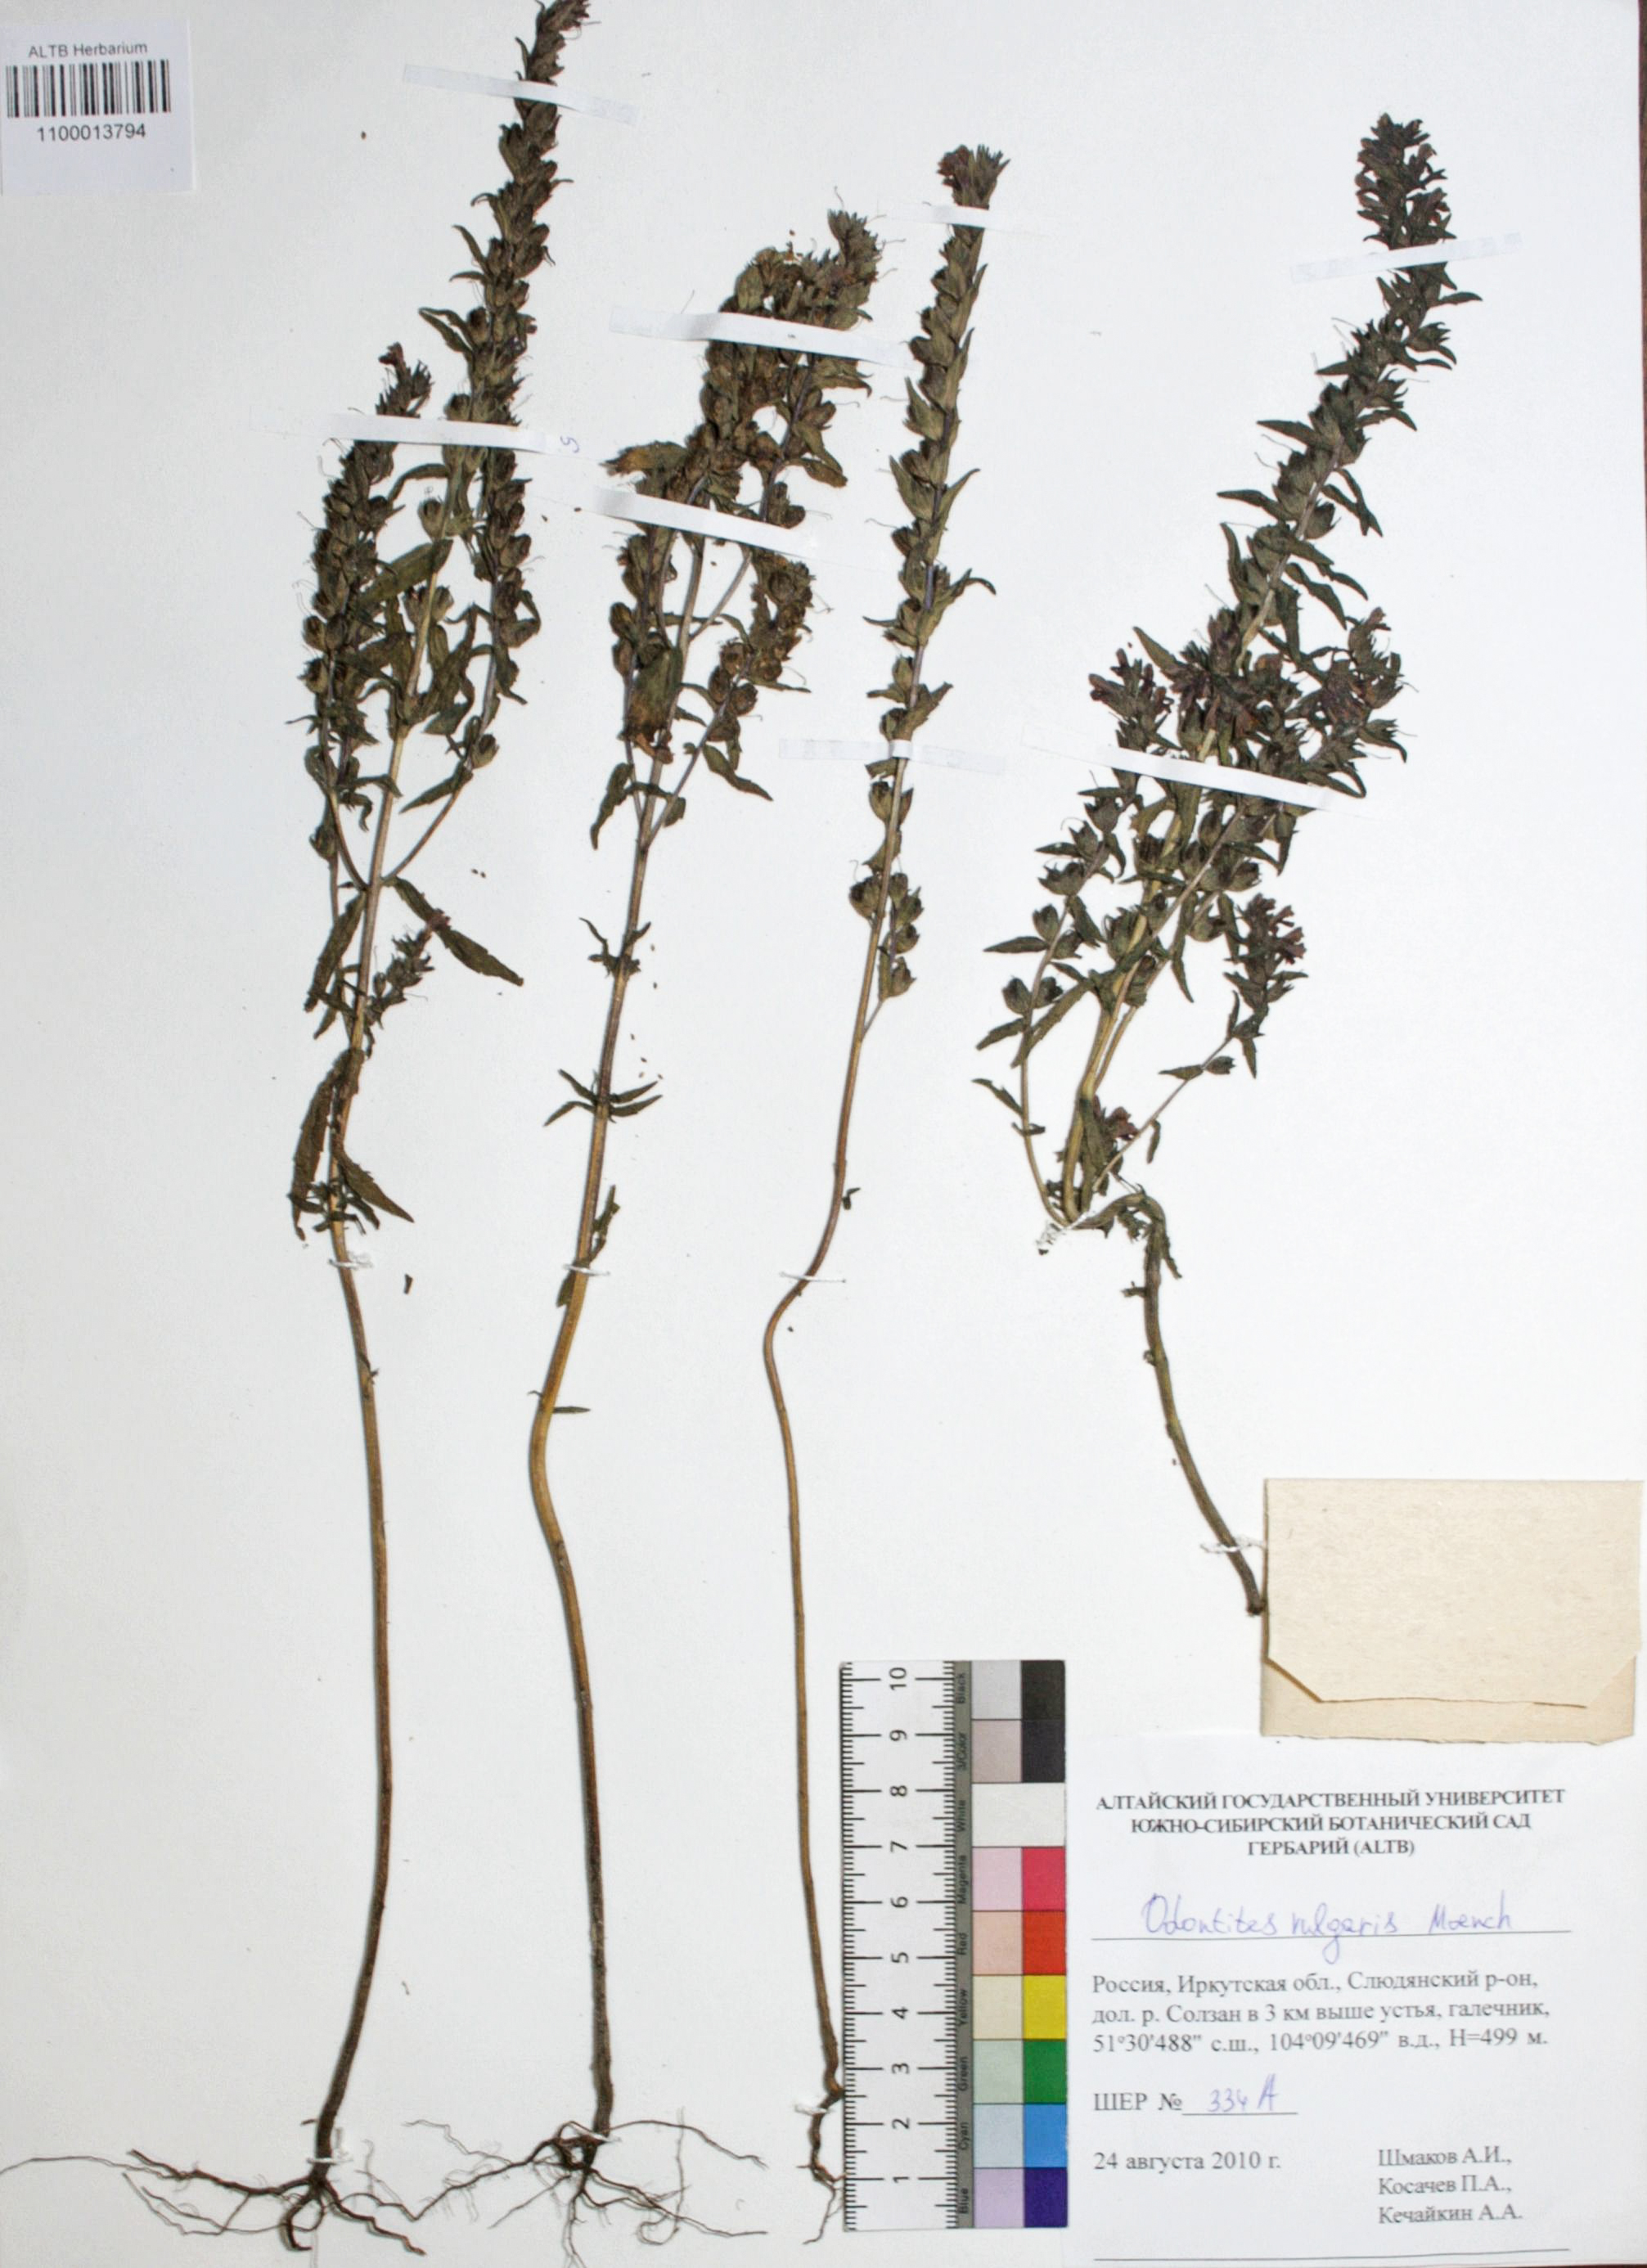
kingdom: Plantae
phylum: Tracheophyta
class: Magnoliopsida
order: Lamiales
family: Orobanchaceae
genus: Odontites
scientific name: Odontites vulgaris
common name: Broomrape
